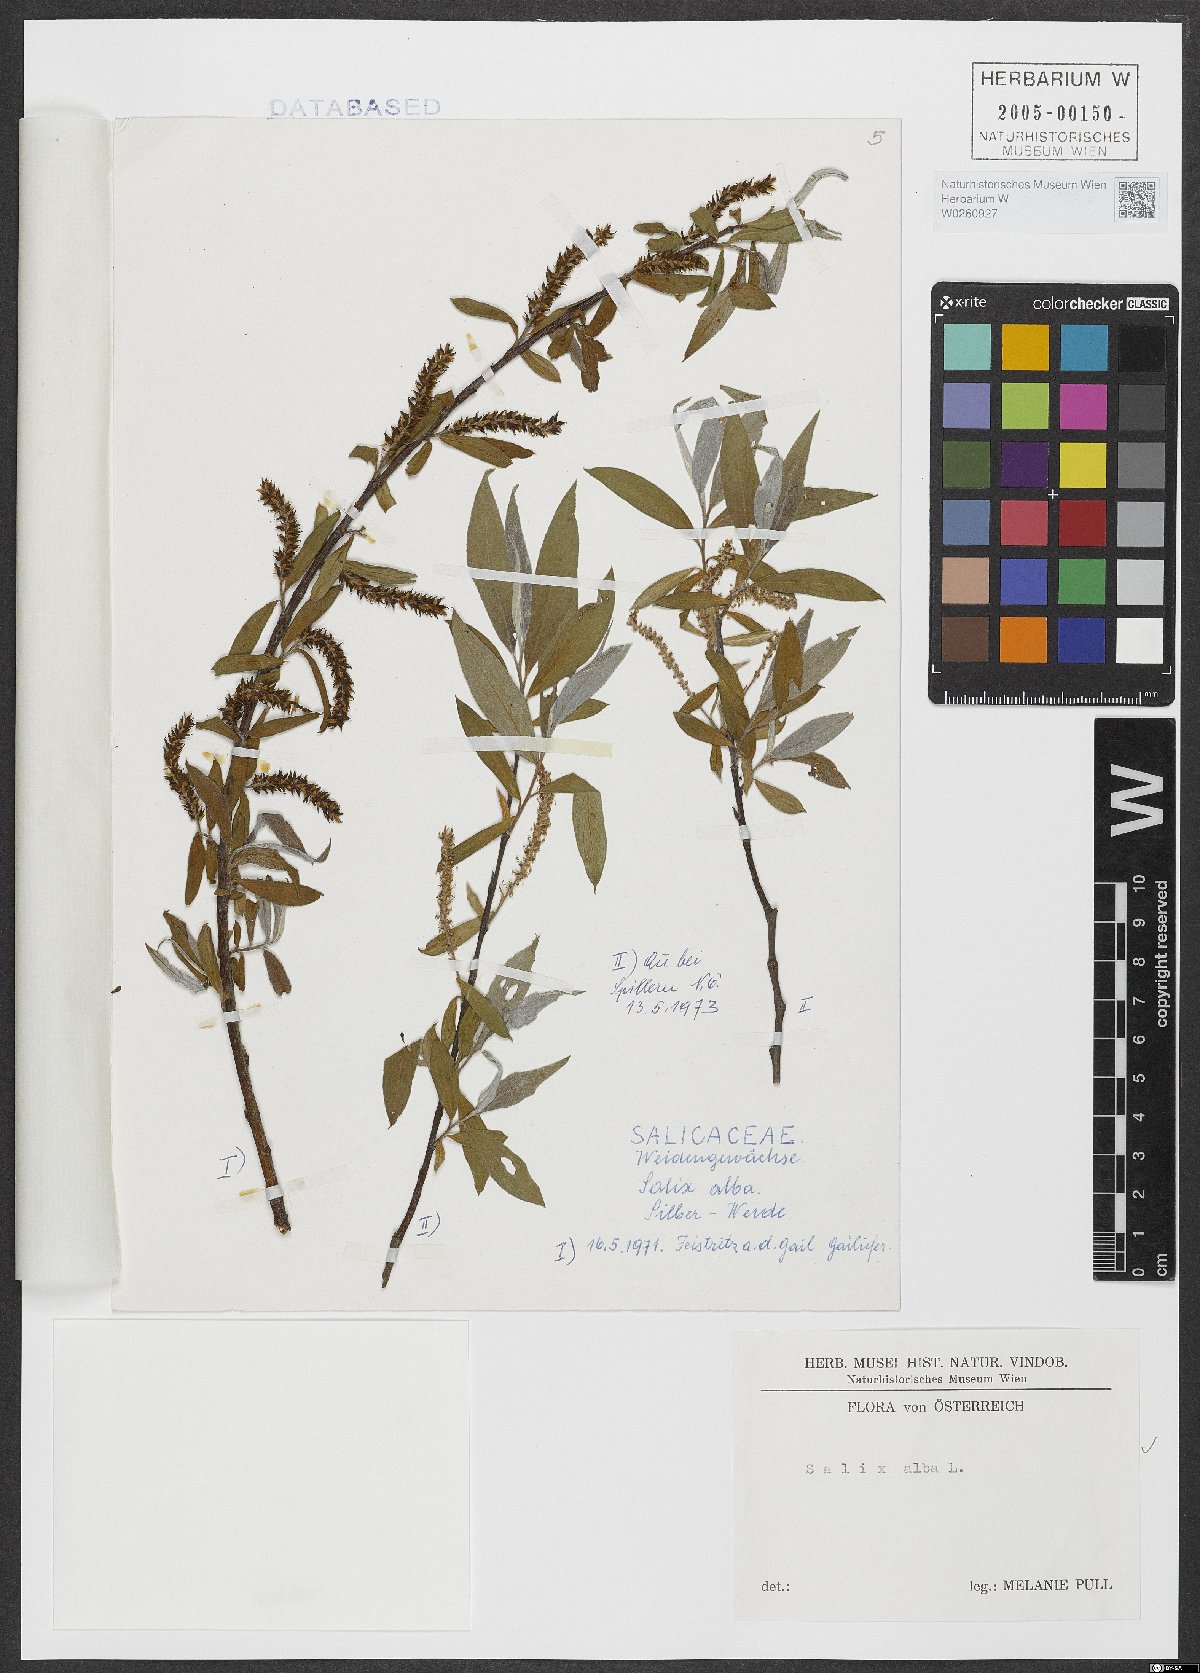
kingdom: Plantae
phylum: Tracheophyta
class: Magnoliopsida
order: Malpighiales
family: Salicaceae
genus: Salix
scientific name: Salix alba
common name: White willow
